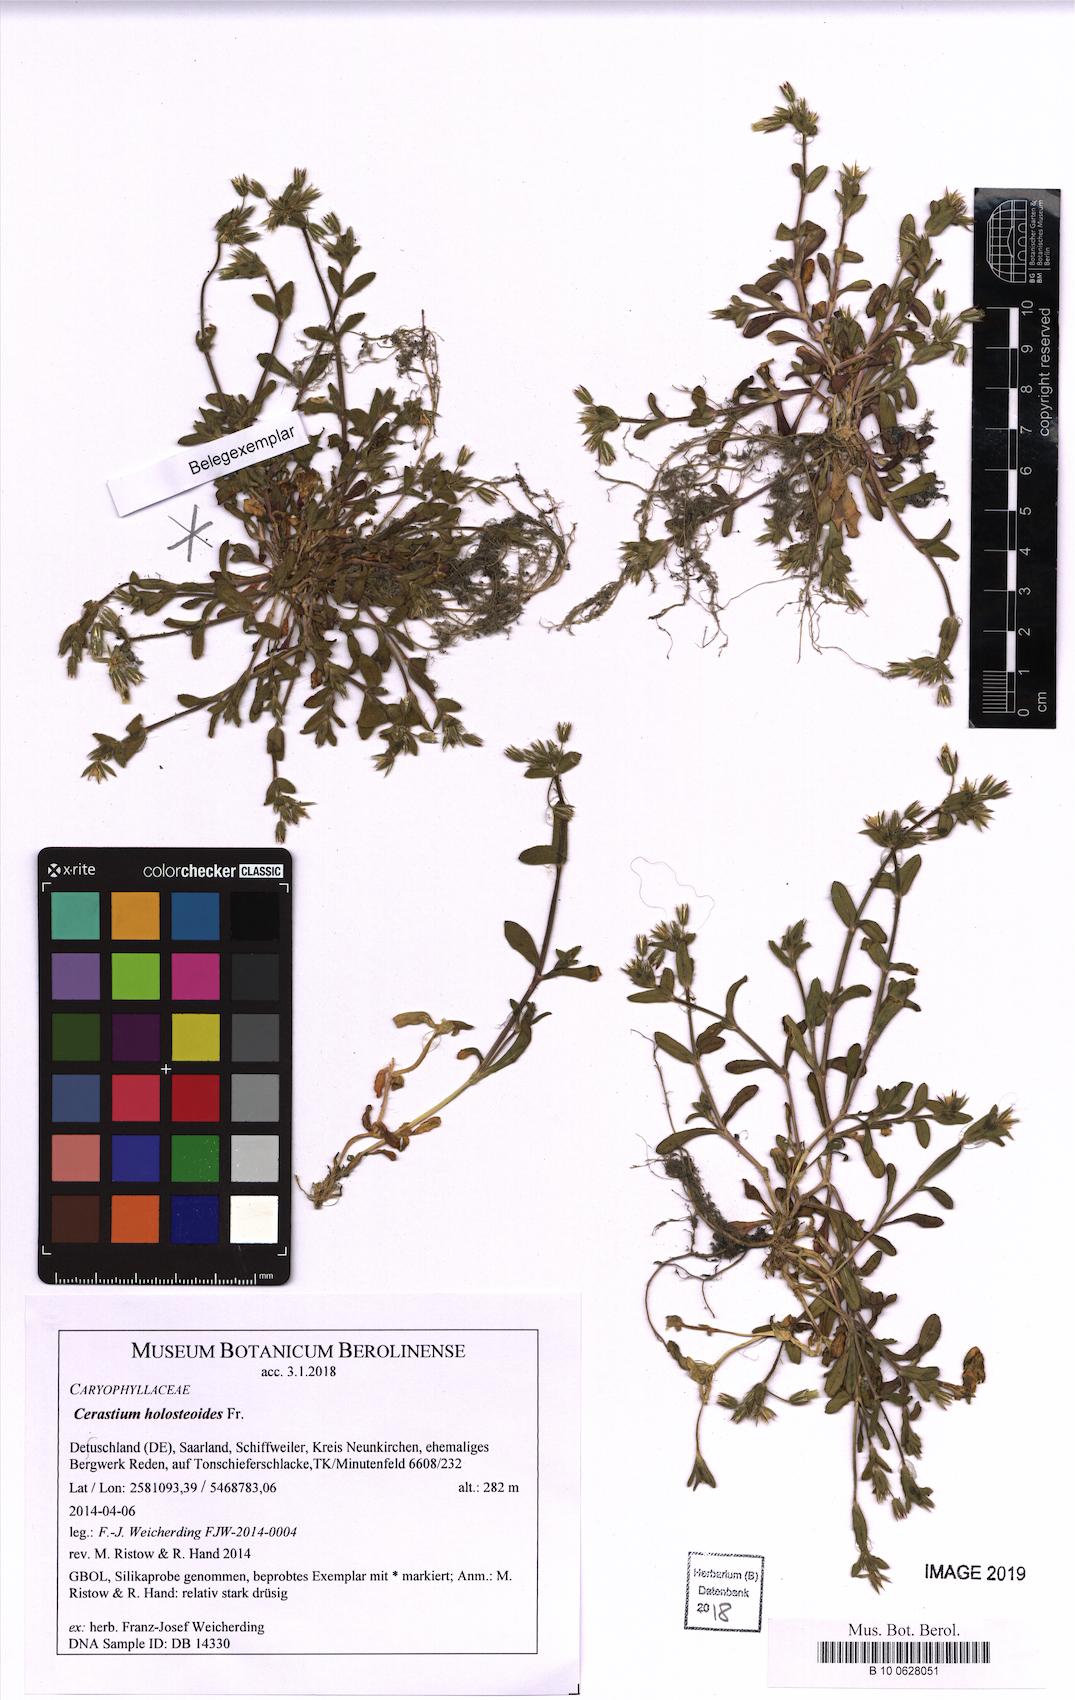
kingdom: Plantae
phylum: Tracheophyta
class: Magnoliopsida
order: Caryophyllales
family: Caryophyllaceae
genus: Cerastium
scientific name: Cerastium holosteoides
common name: Big chickweed
